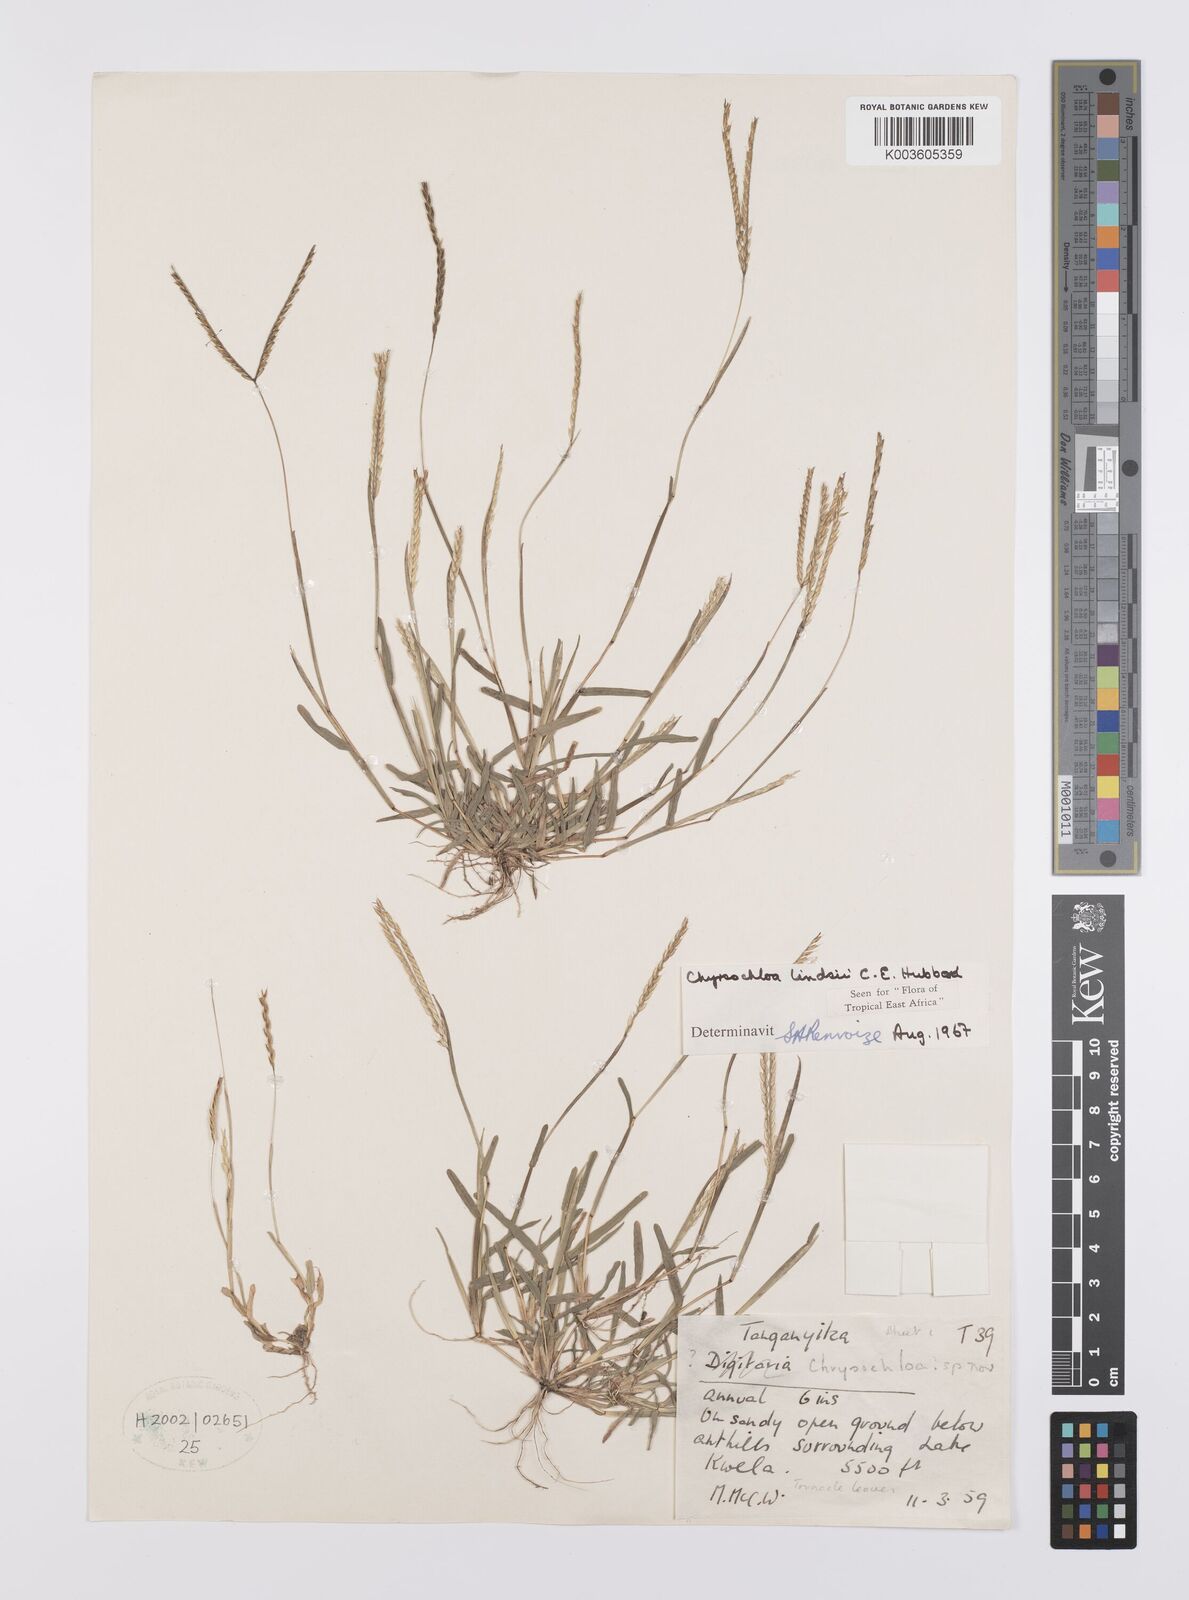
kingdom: Plantae
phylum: Tracheophyta
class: Liliopsida
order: Poales
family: Poaceae
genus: Chrysochloa
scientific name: Chrysochloa hindsii
